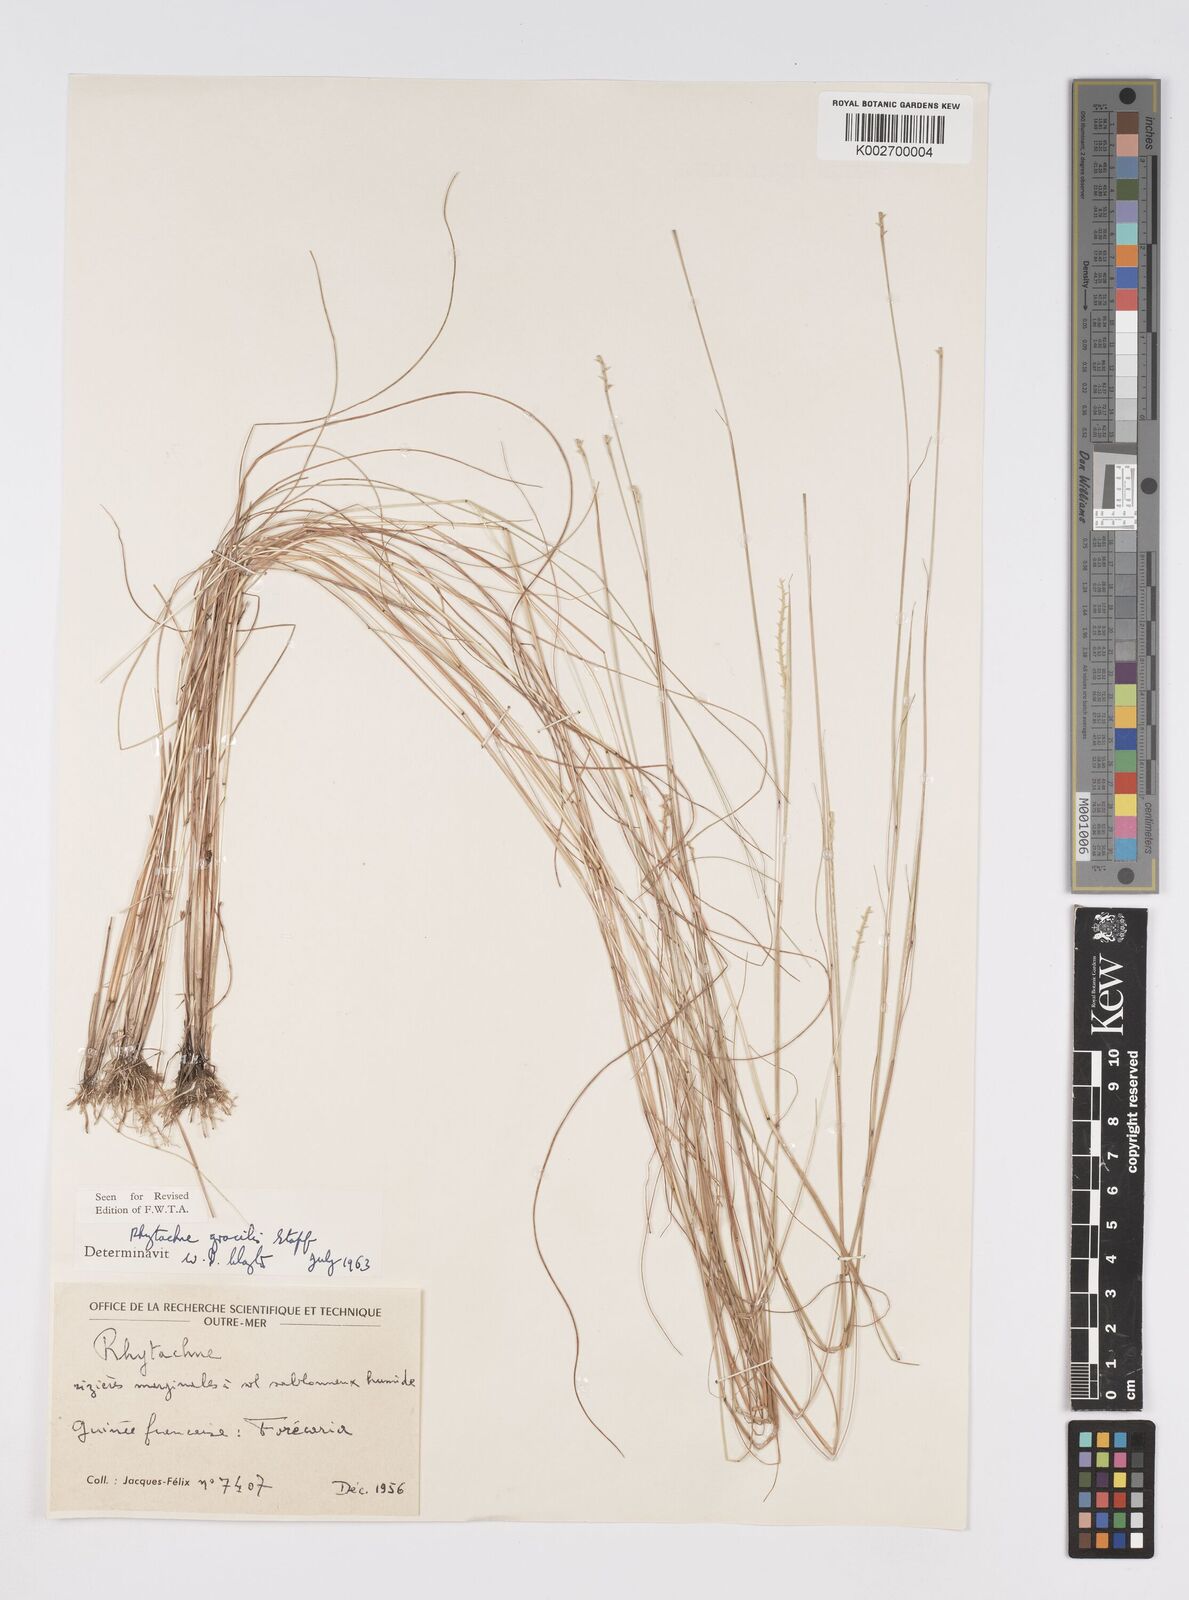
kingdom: Plantae
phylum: Tracheophyta
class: Liliopsida
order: Poales
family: Poaceae
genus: Rhytachne
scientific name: Rhytachne gracilis
